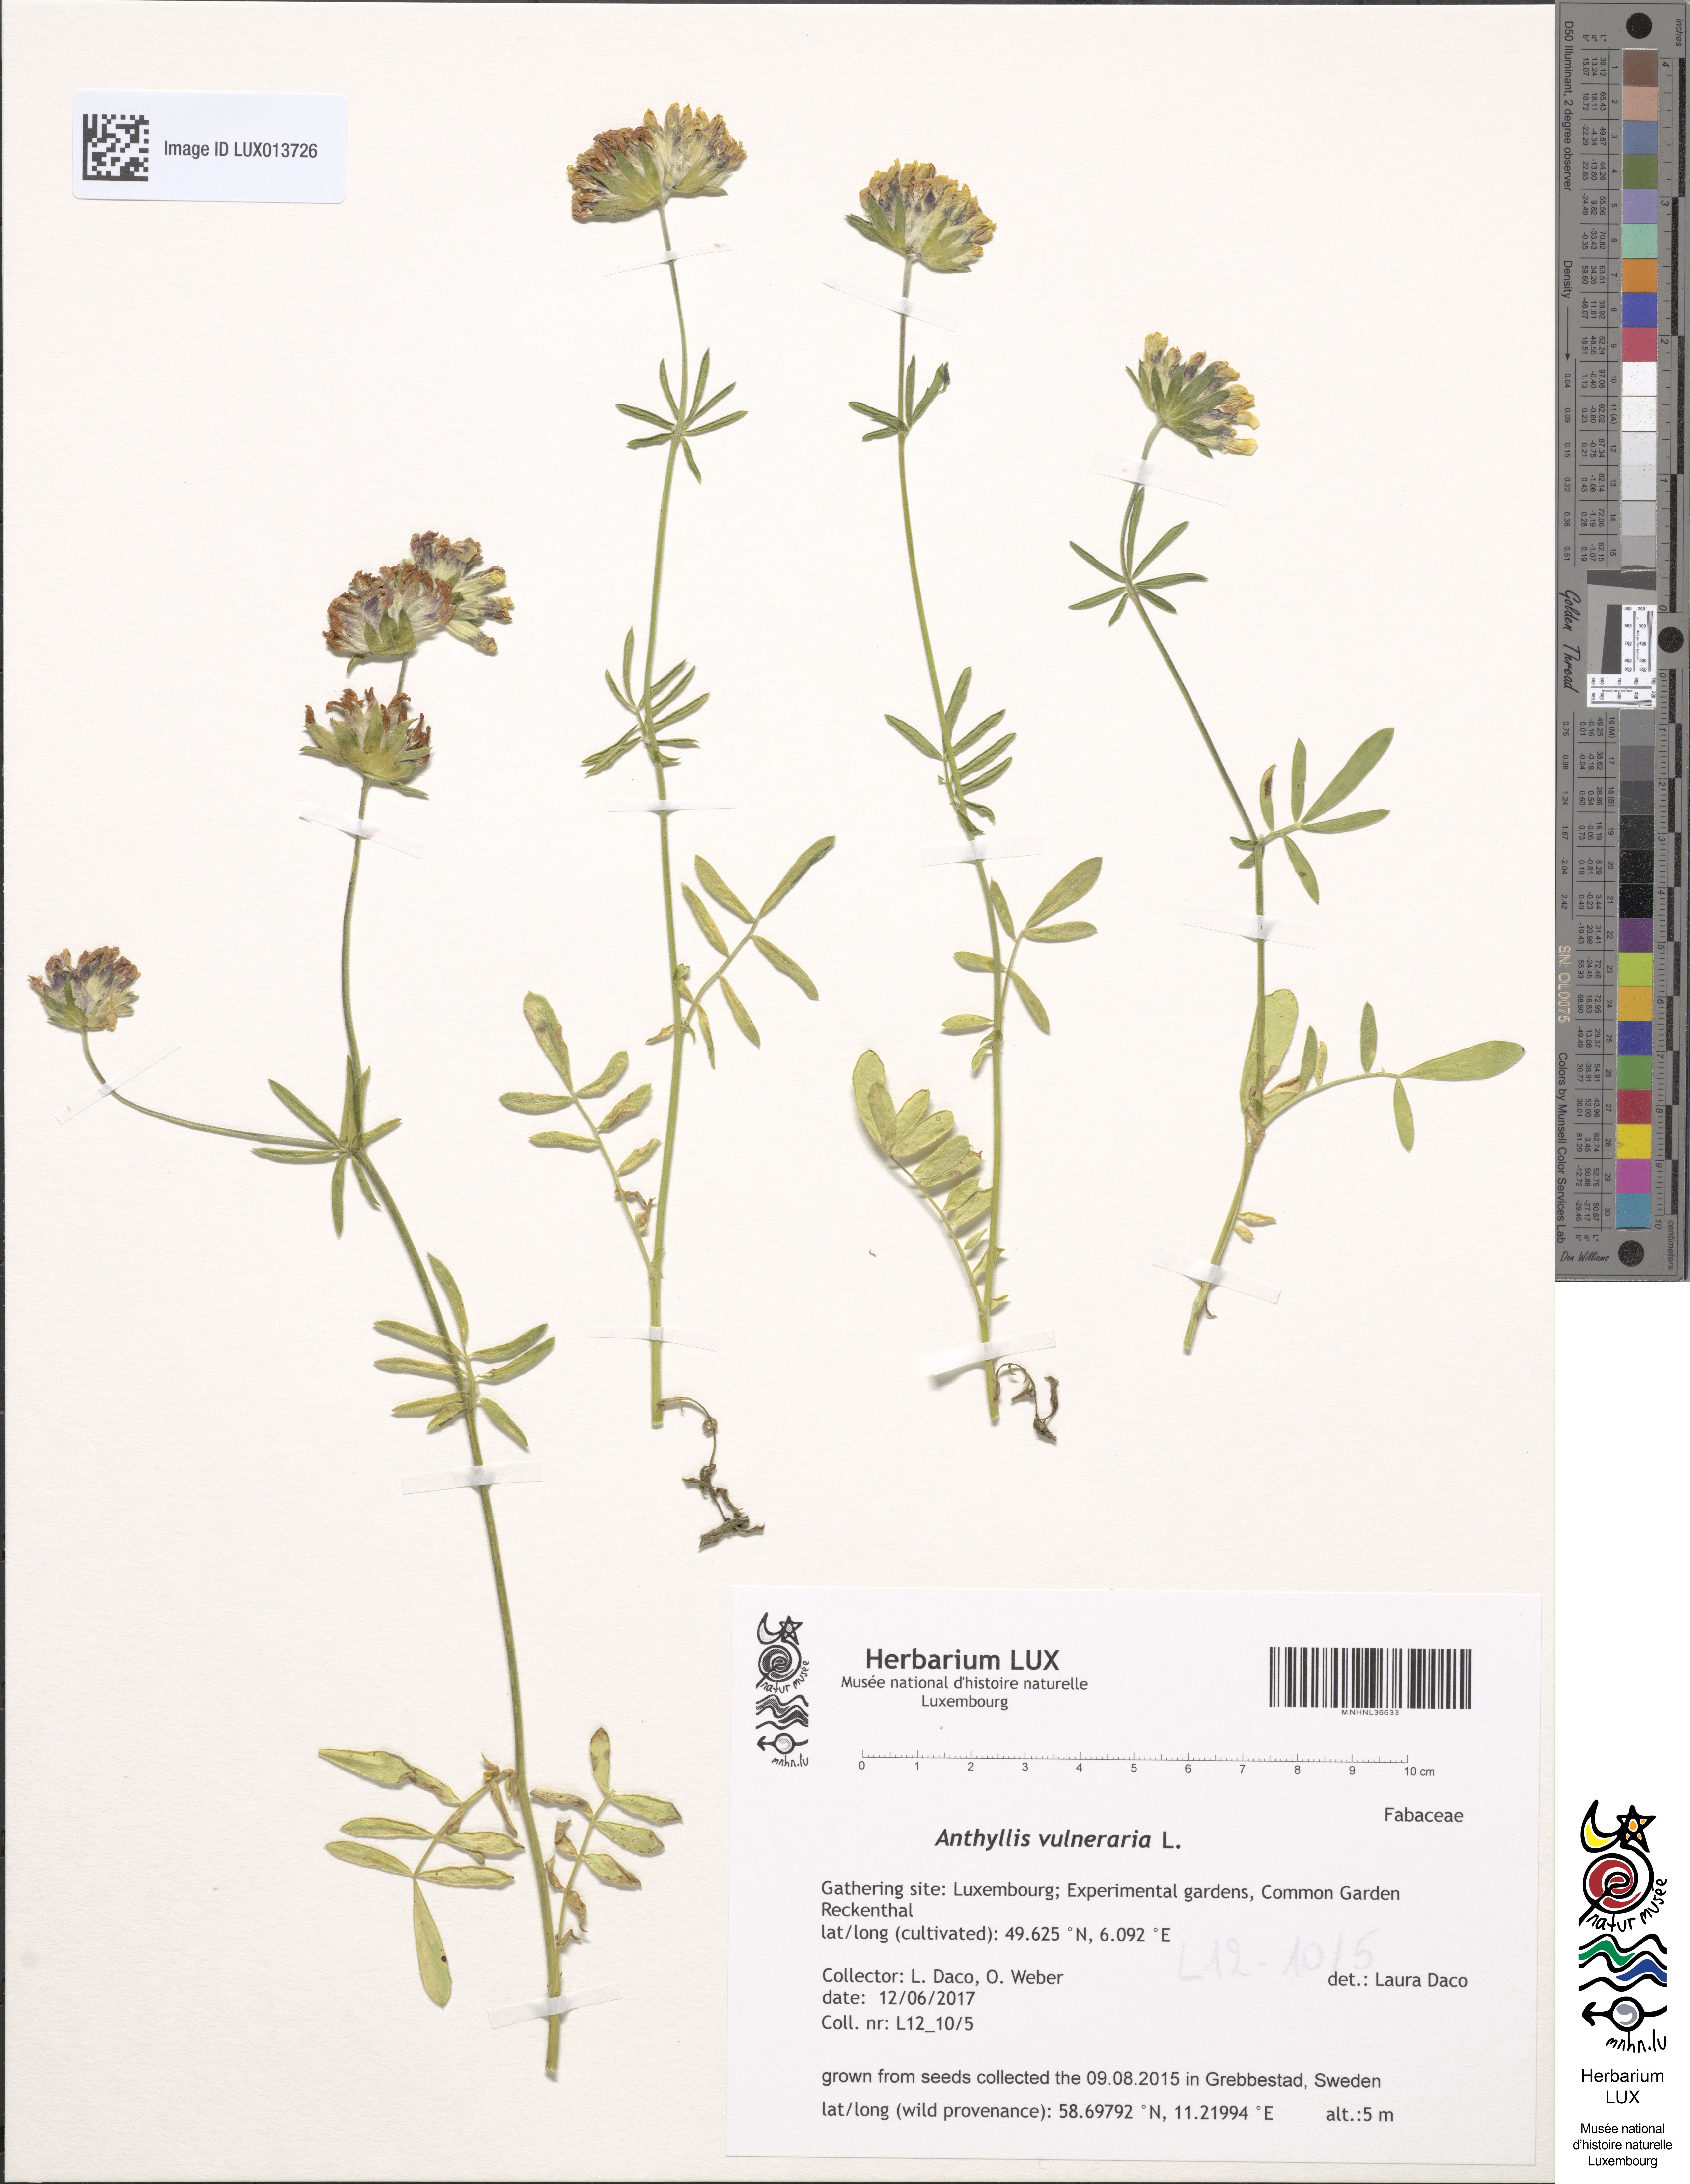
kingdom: Plantae
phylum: Tracheophyta
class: Magnoliopsida
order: Fabales
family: Fabaceae
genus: Anthyllis
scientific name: Anthyllis vulneraria
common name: Kidney vetch
